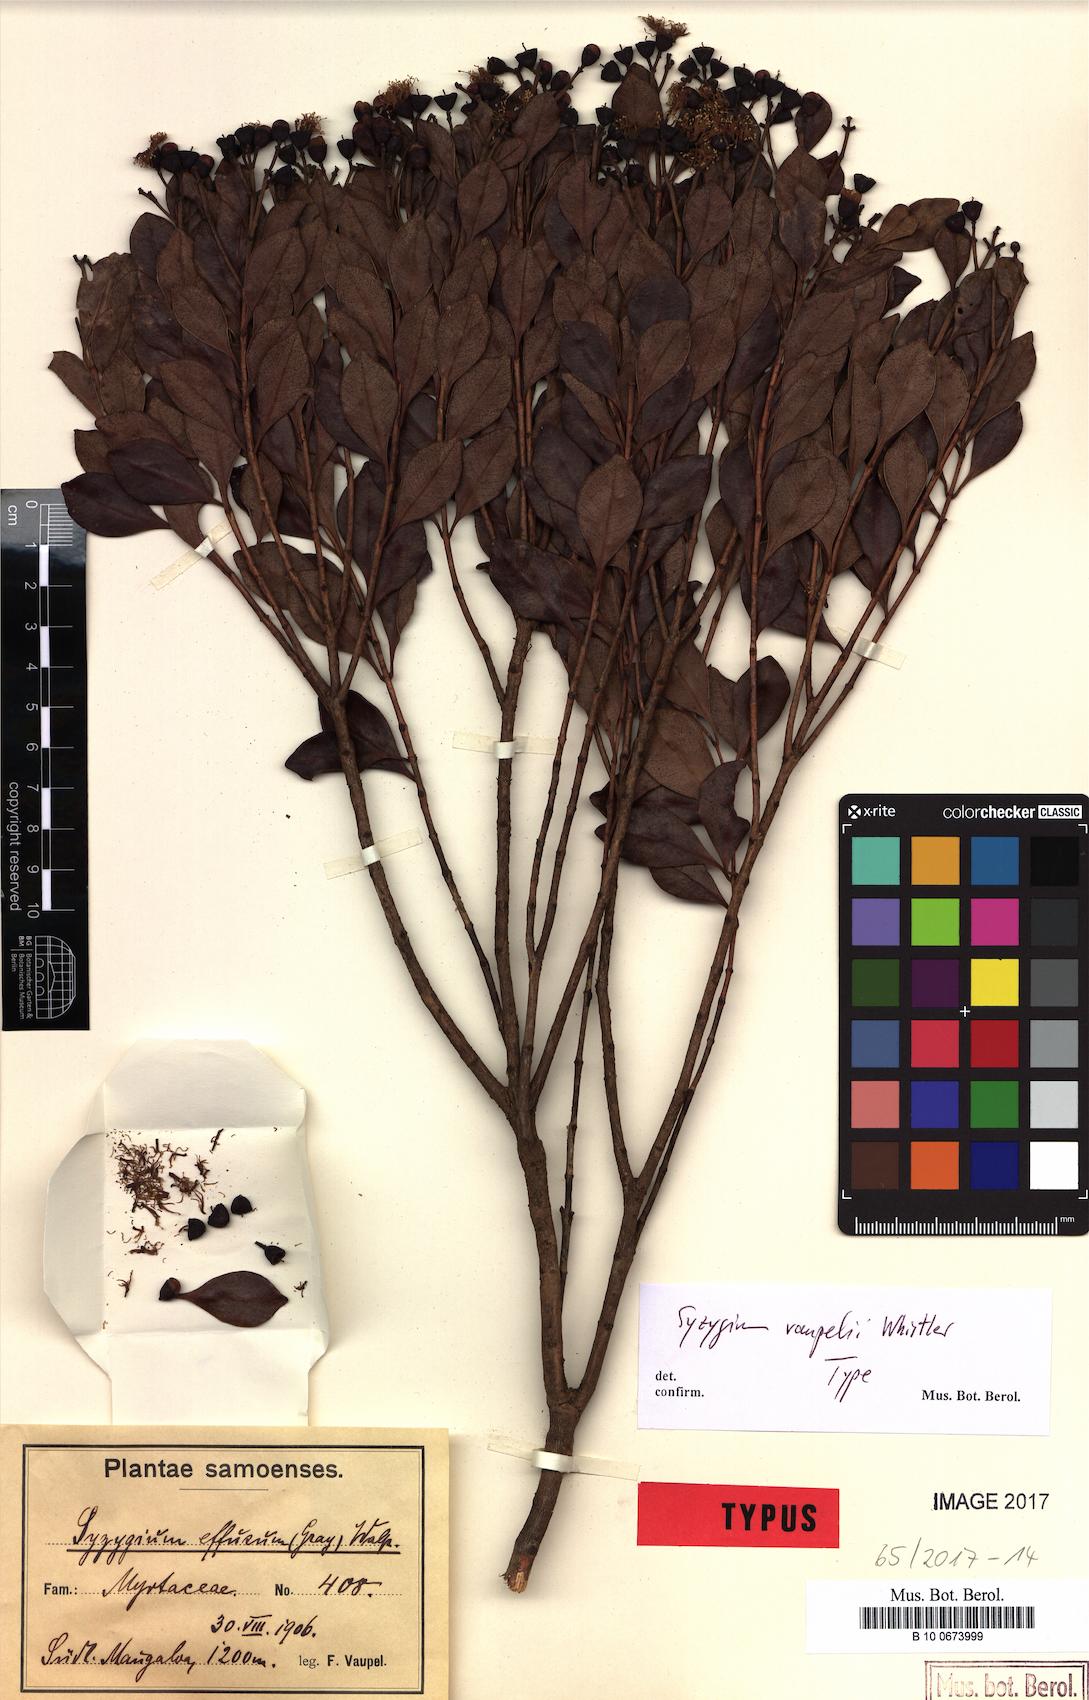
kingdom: Plantae
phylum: Tracheophyta
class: Magnoliopsida
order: Myrtales
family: Myrtaceae
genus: Syzygium
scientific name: Syzygium vaupelii
